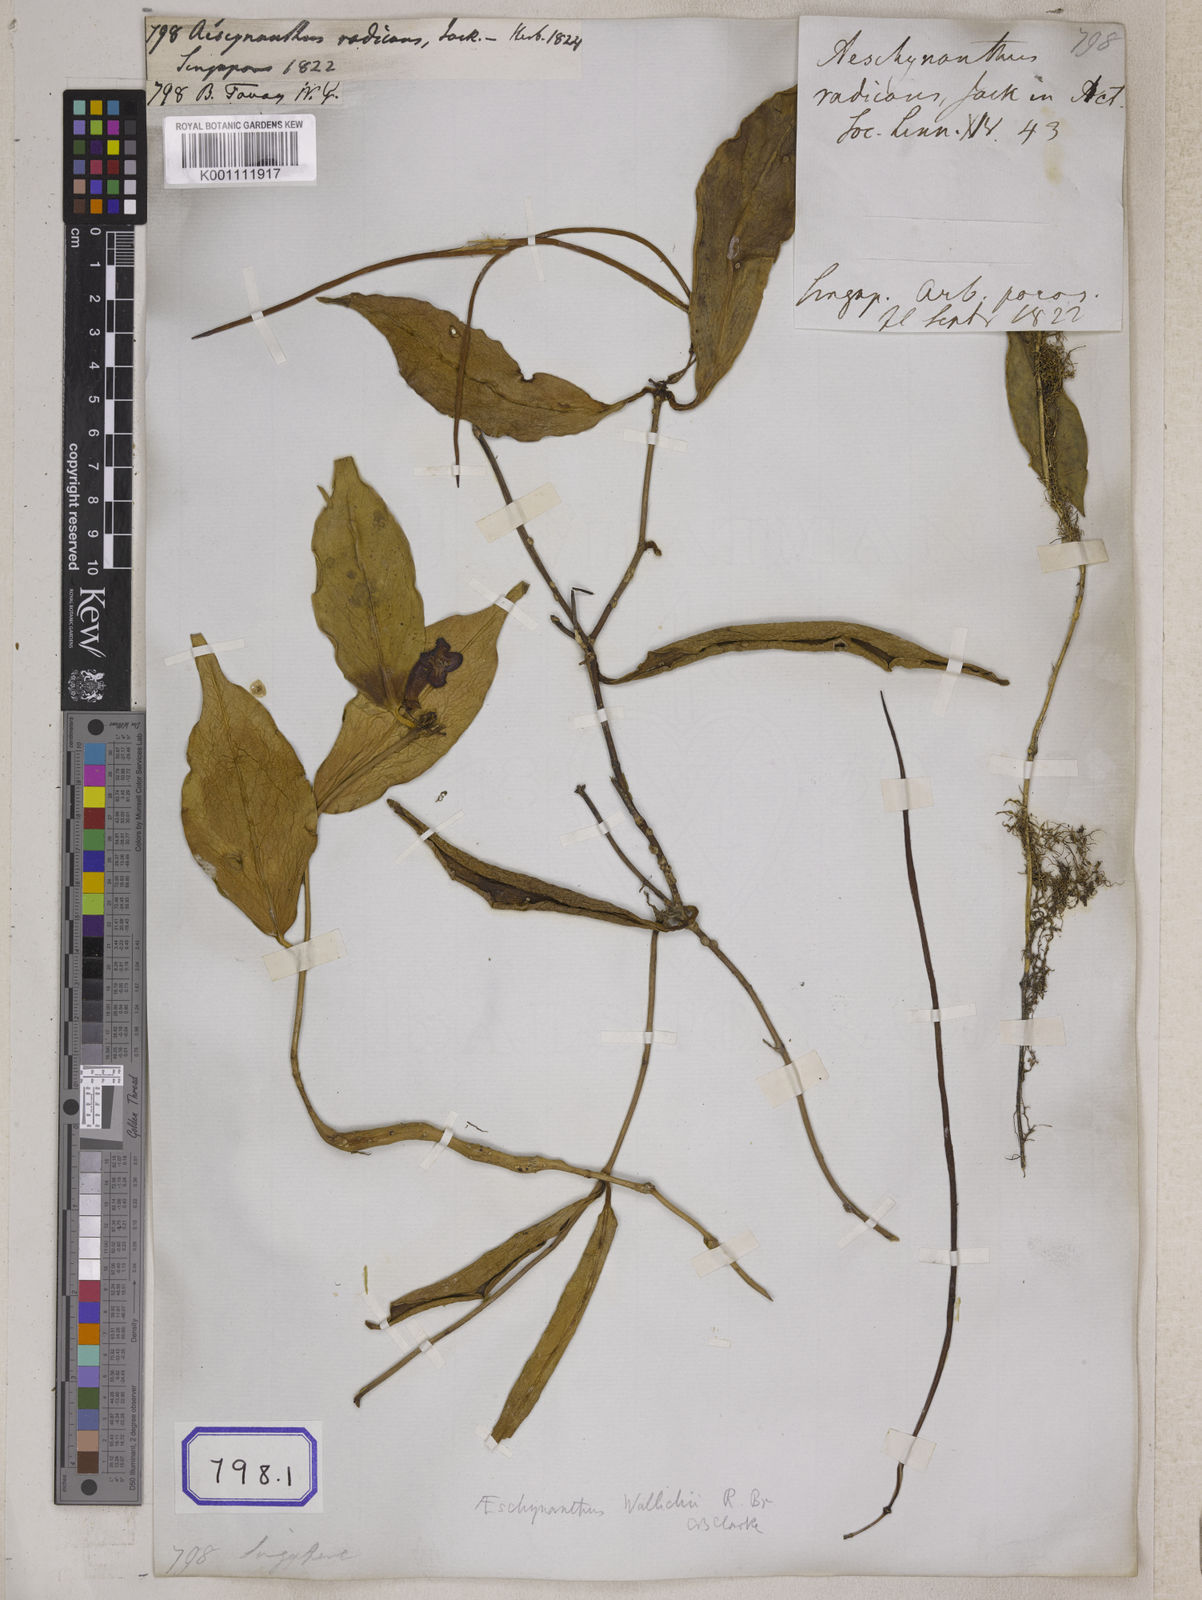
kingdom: Plantae
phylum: Tracheophyta
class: Magnoliopsida
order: Lamiales
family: Gesneriaceae
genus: Aeschynanthus
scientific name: Aeschynanthus radicans
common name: Lipstickplant
